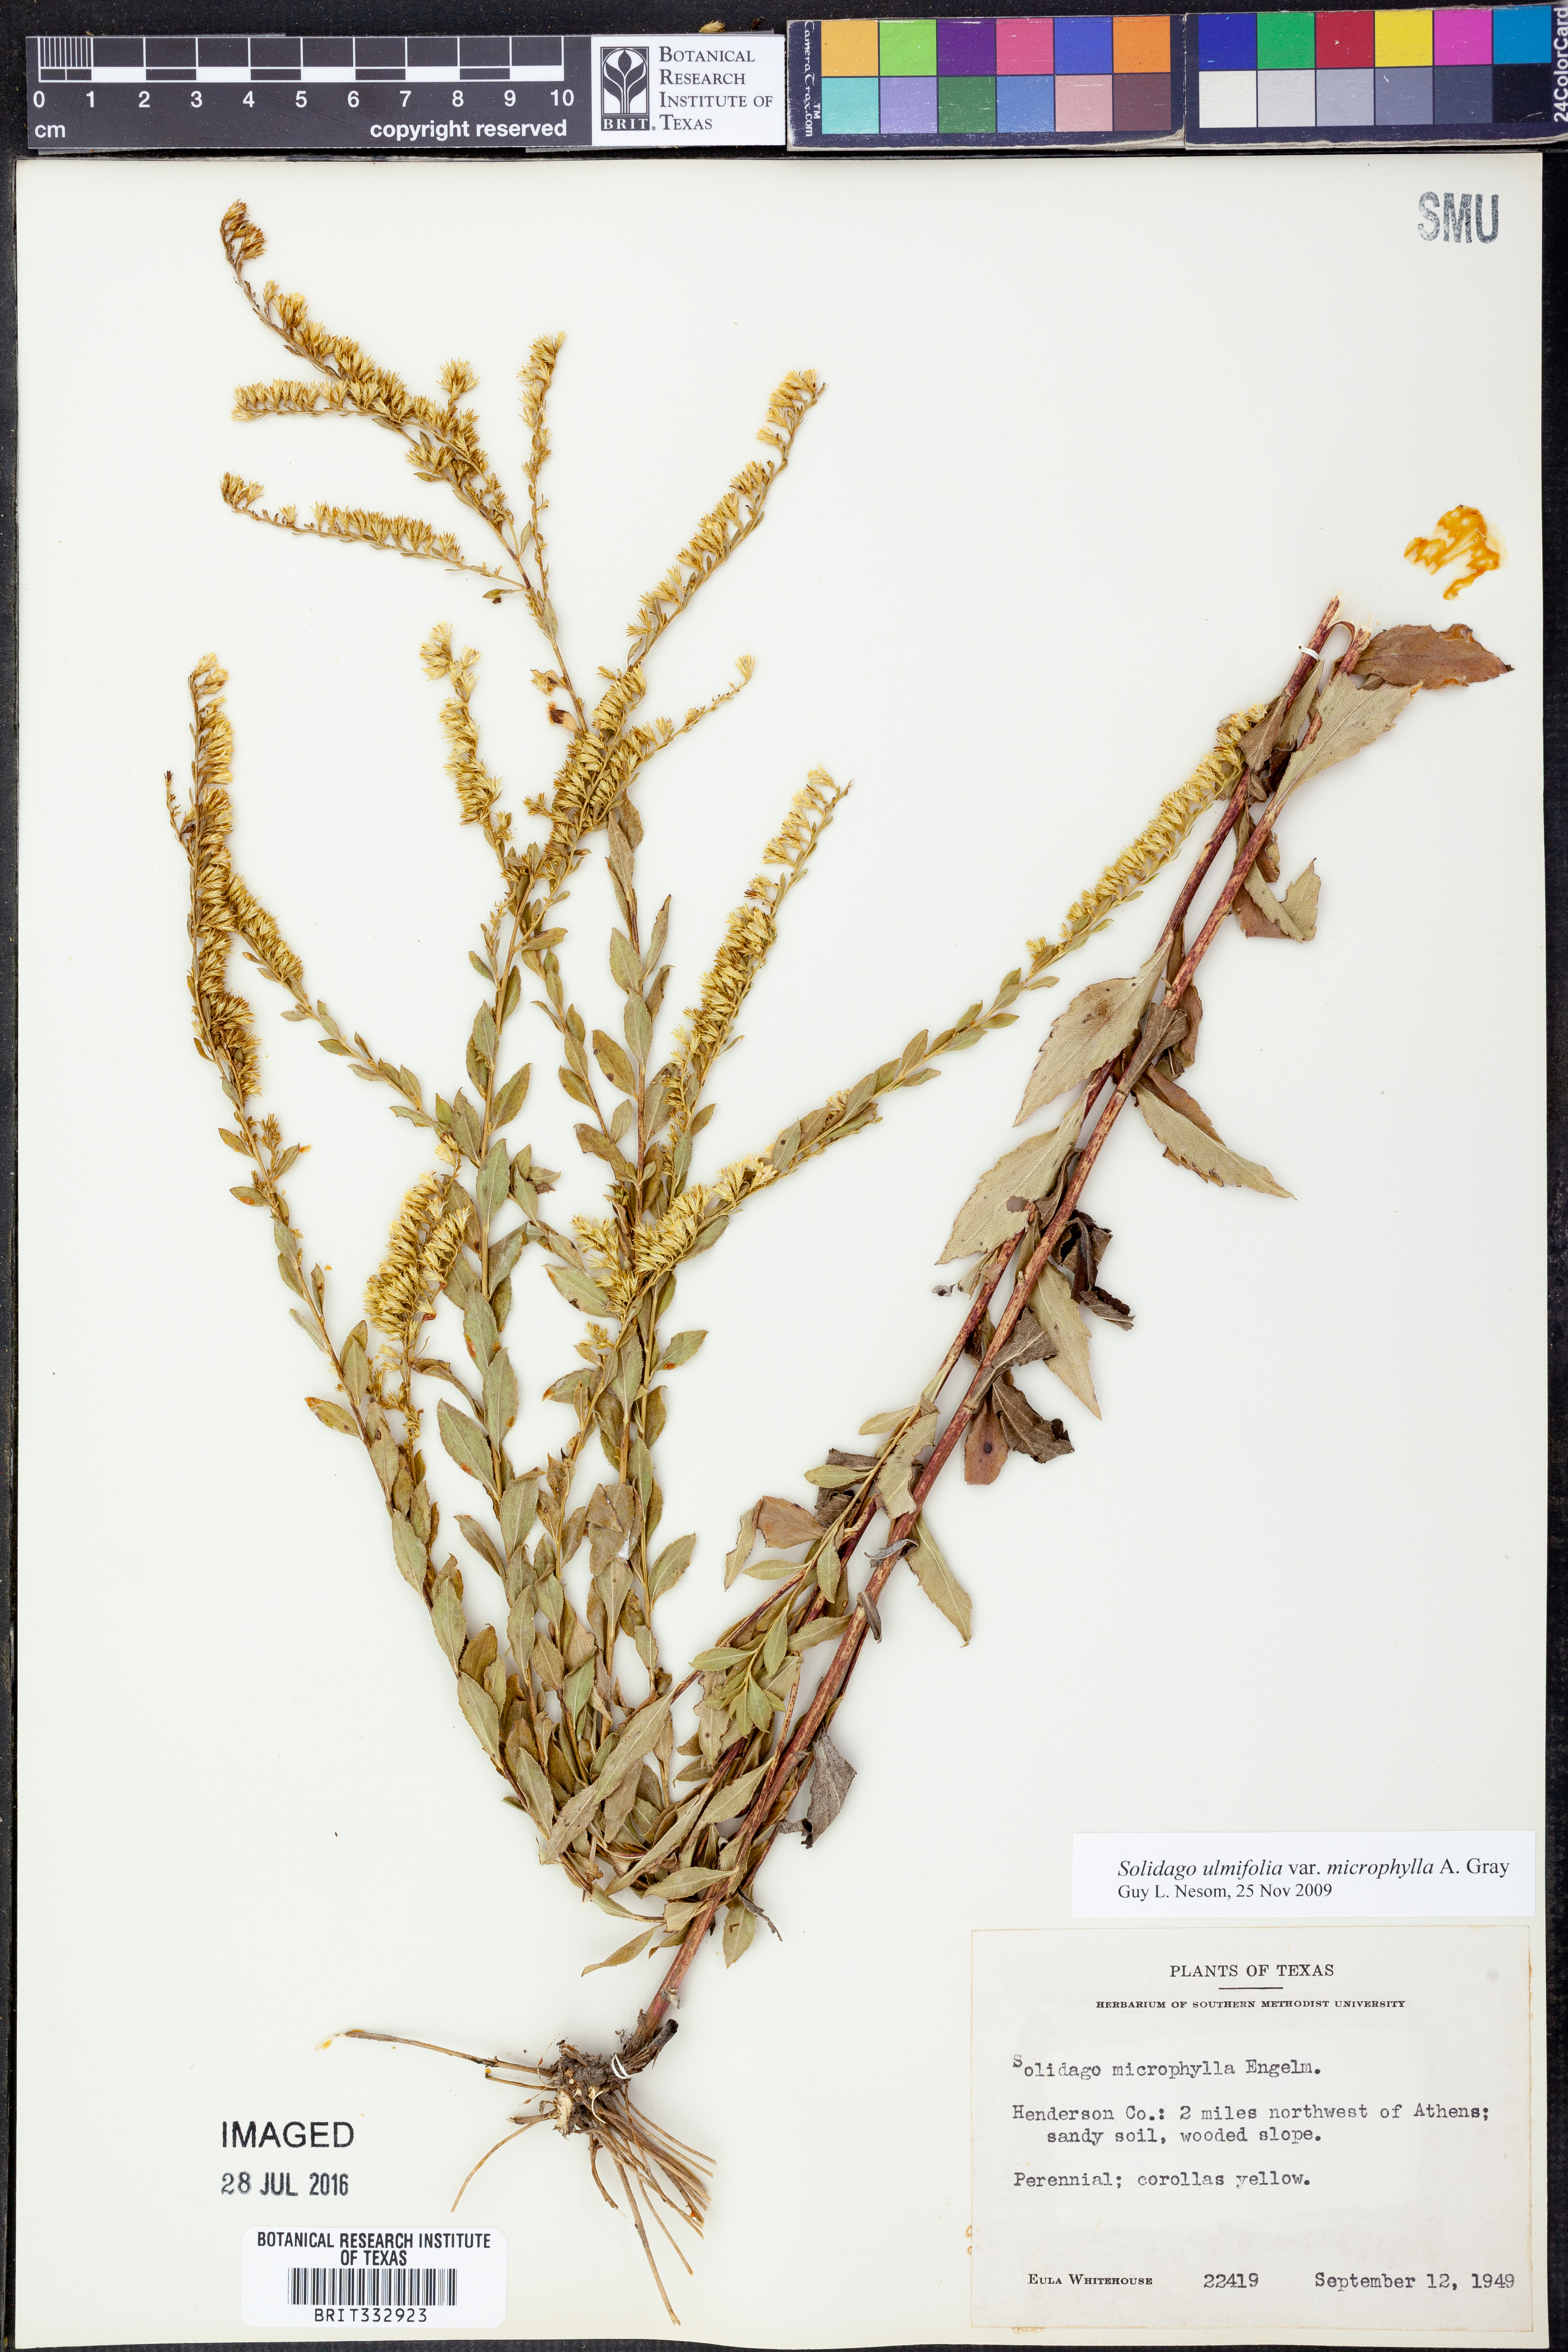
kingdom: Plantae
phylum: Tracheophyta
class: Magnoliopsida
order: Asterales
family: Asteraceae
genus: Solidago
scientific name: Solidago delicatula
